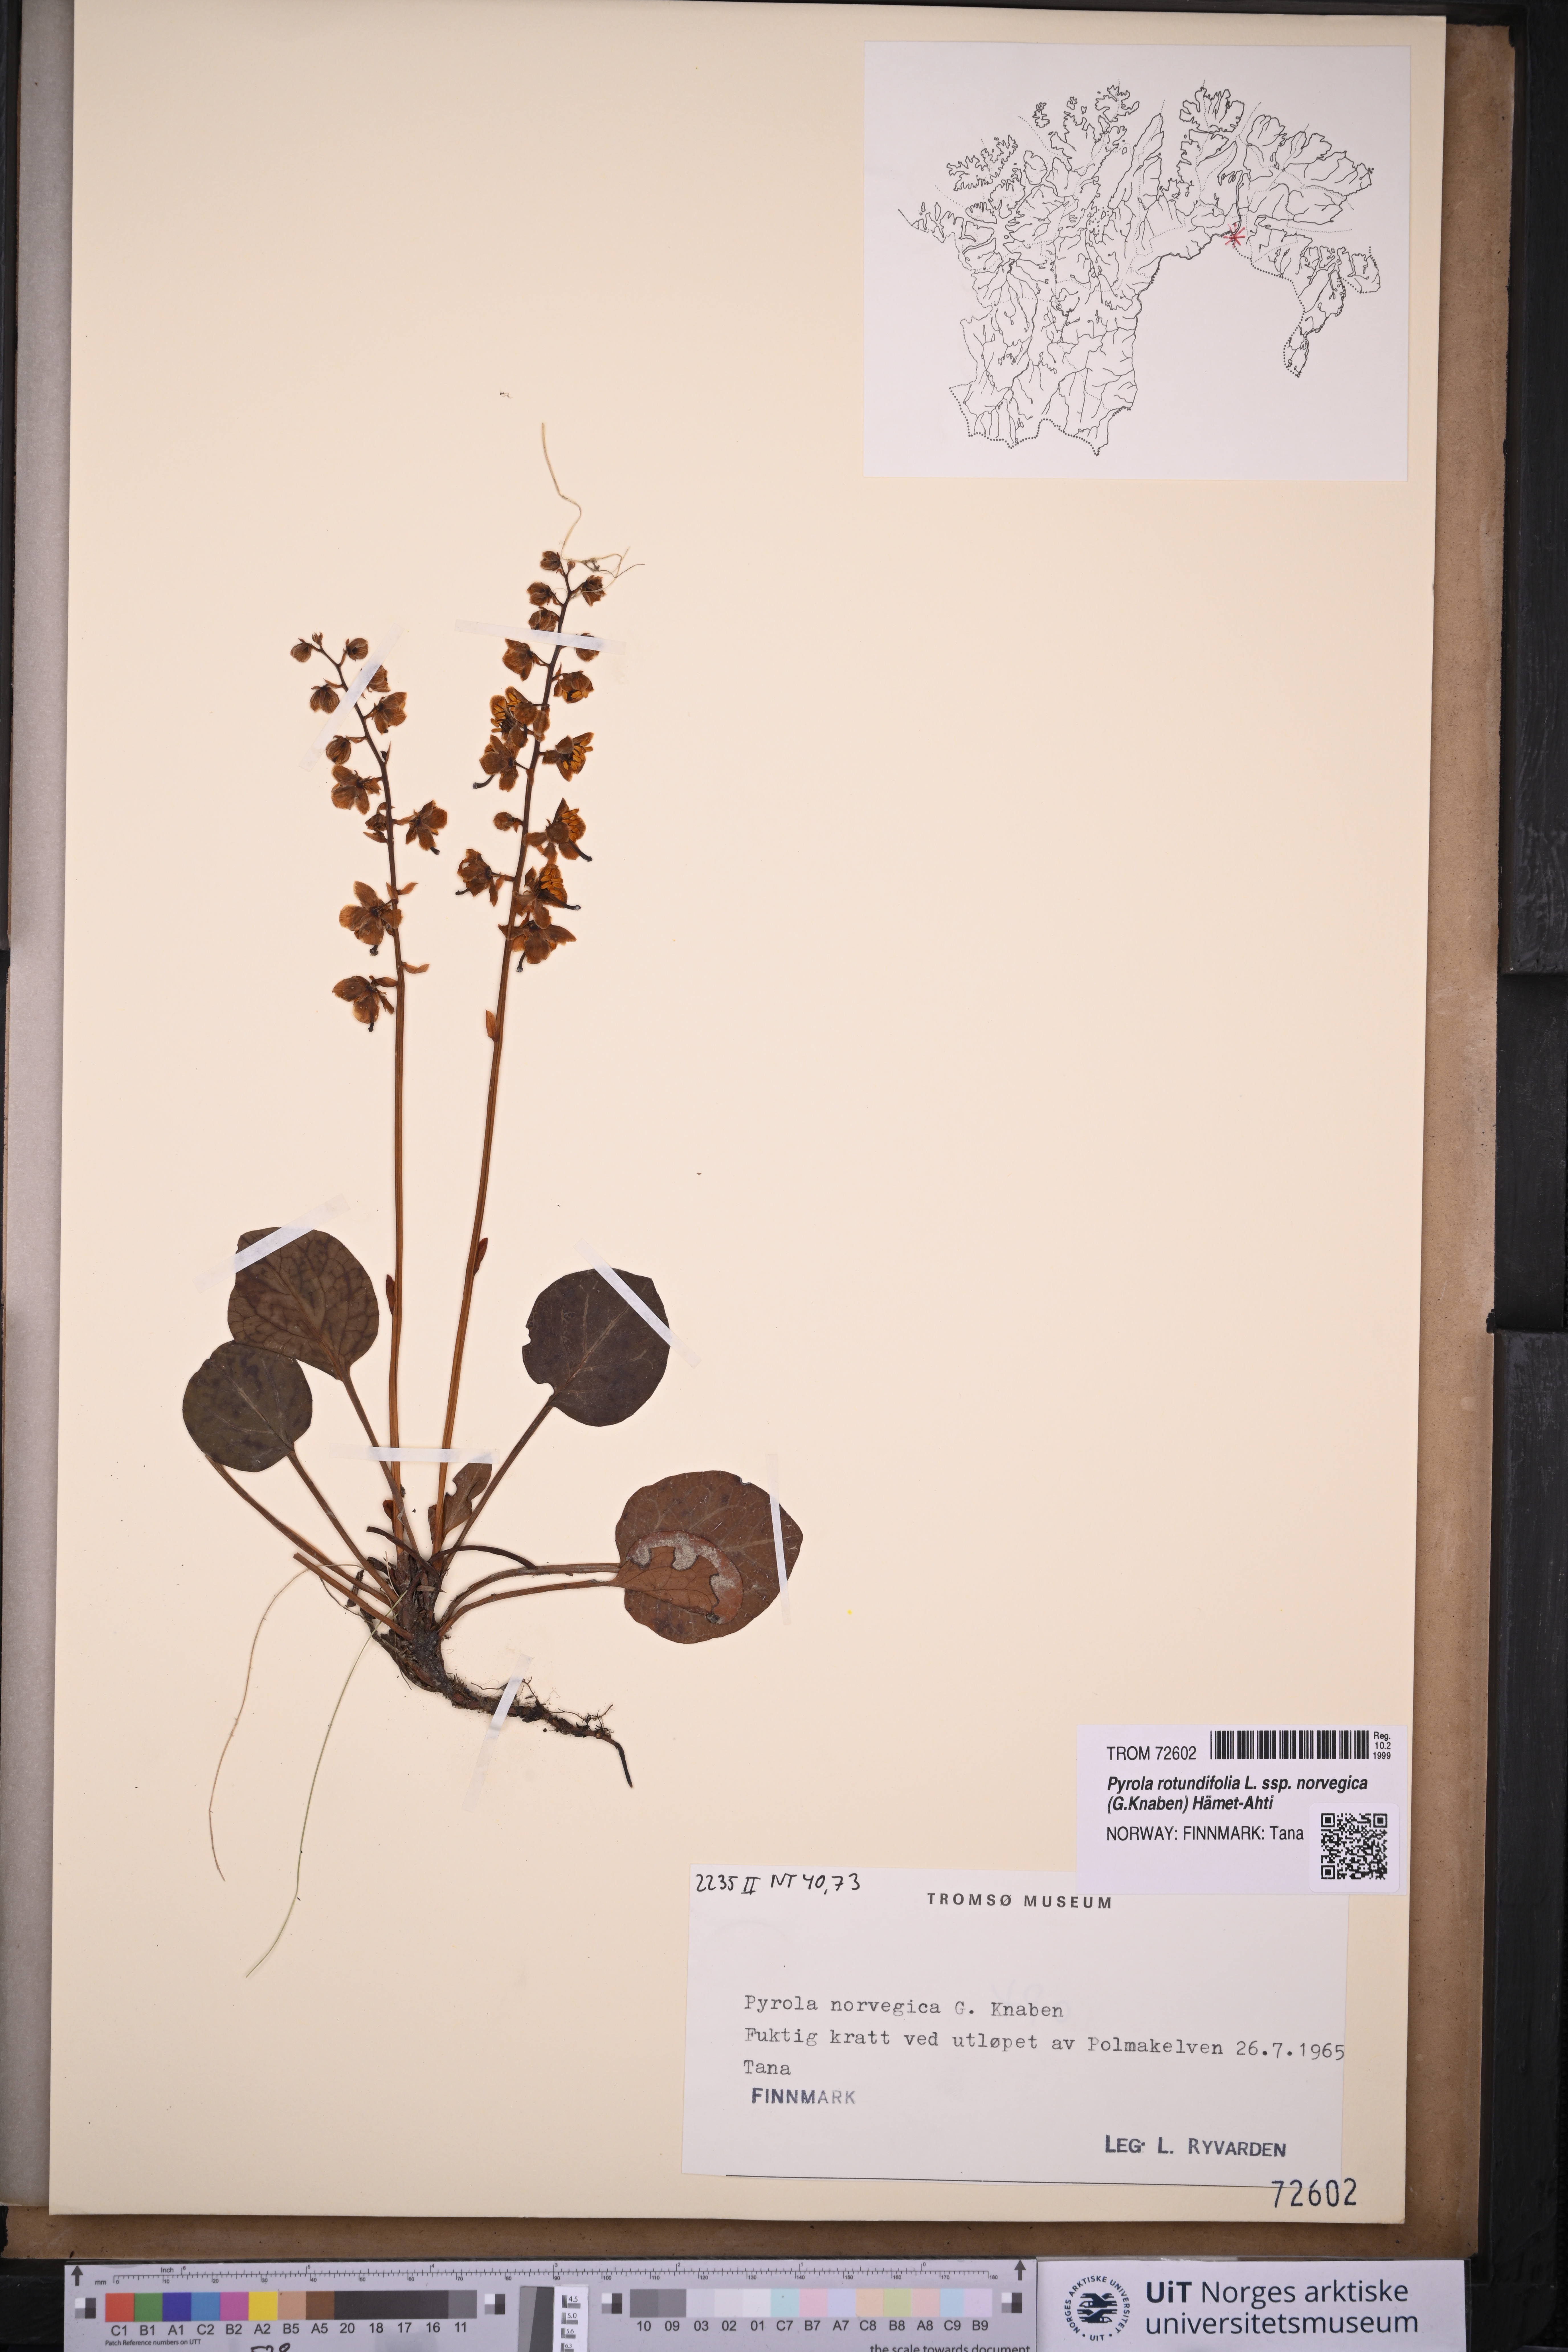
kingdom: Plantae
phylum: Tracheophyta
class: Magnoliopsida
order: Ericales
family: Ericaceae
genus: Pyrola
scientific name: Pyrola rotundifolia
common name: Round-leaved wintergreen
